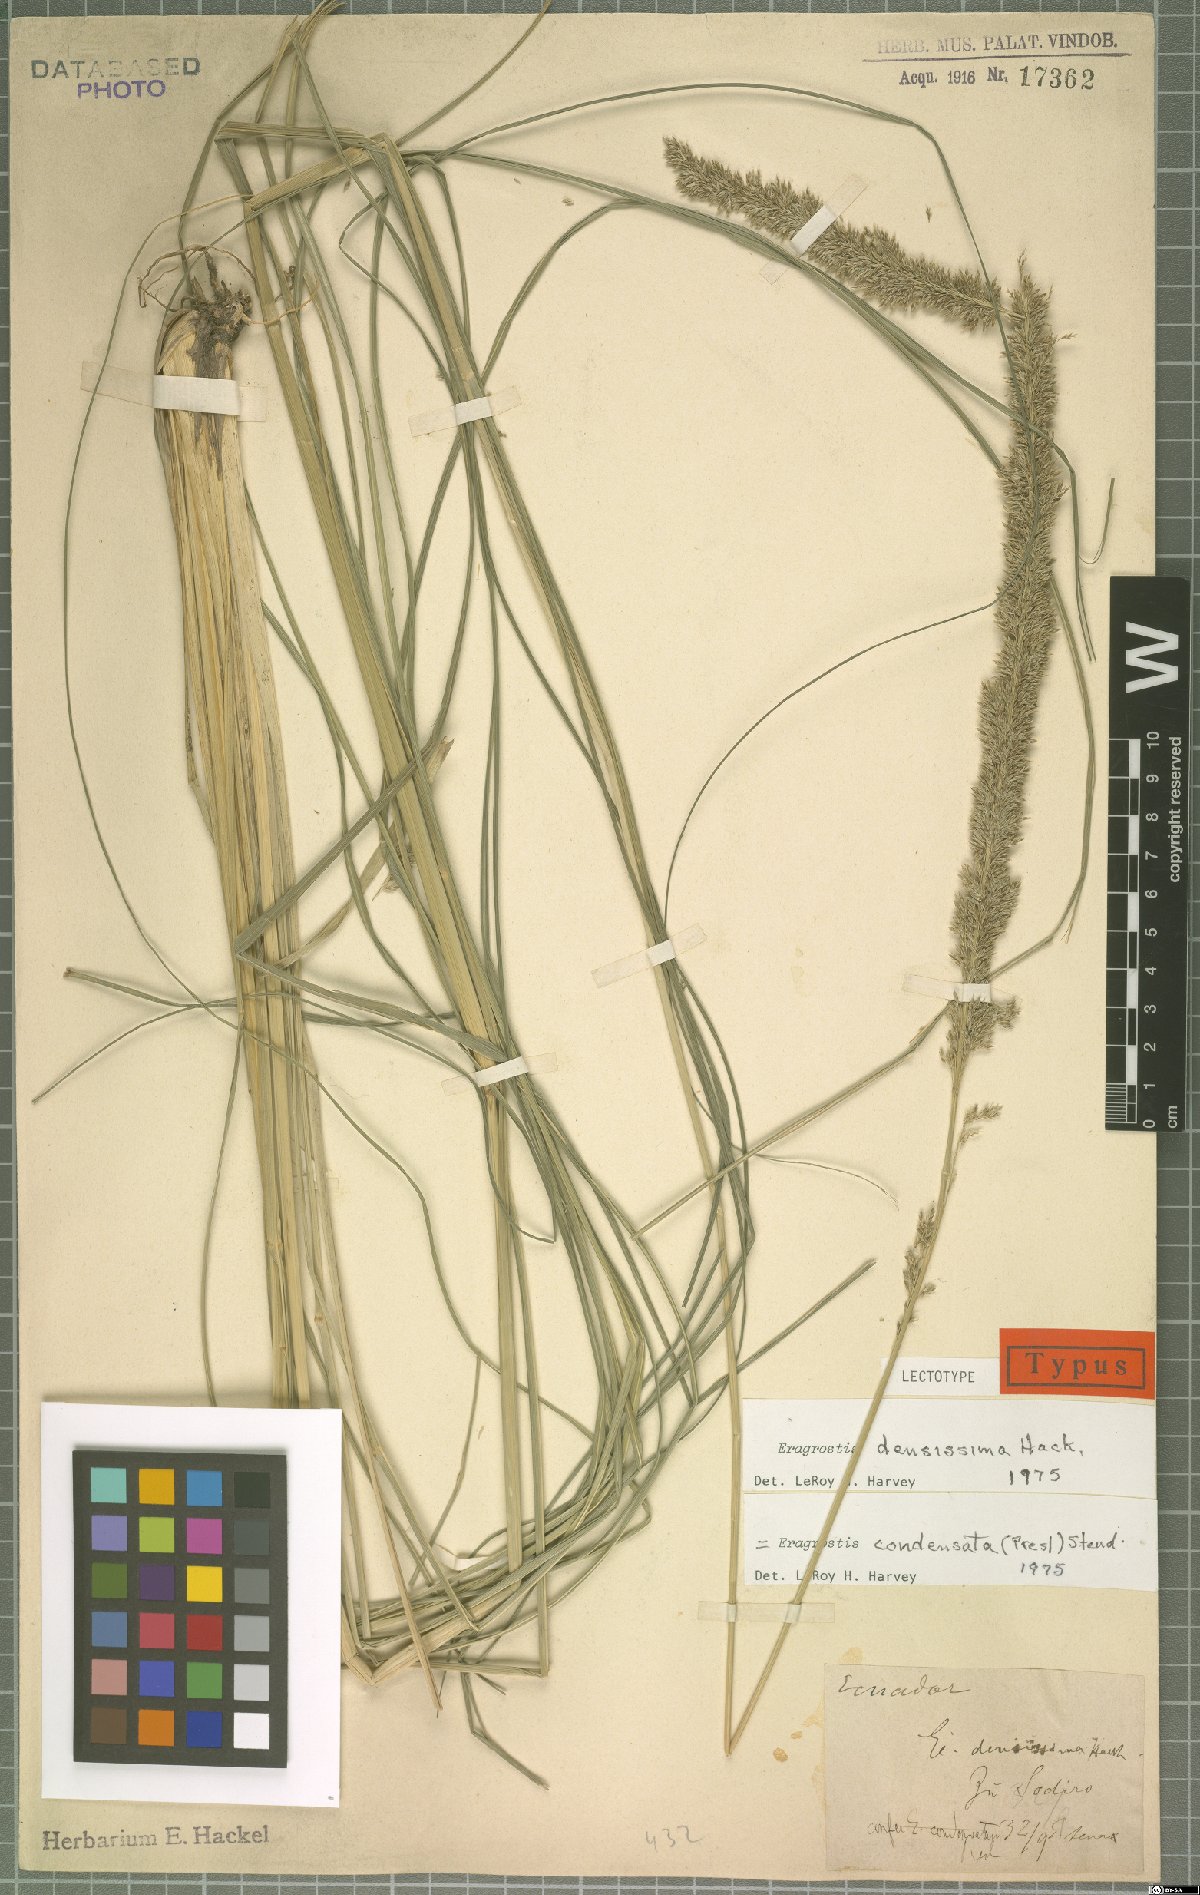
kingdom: Plantae
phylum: Tracheophyta
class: Liliopsida
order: Poales
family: Poaceae
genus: Eragrostis
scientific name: Eragrostis condensata
